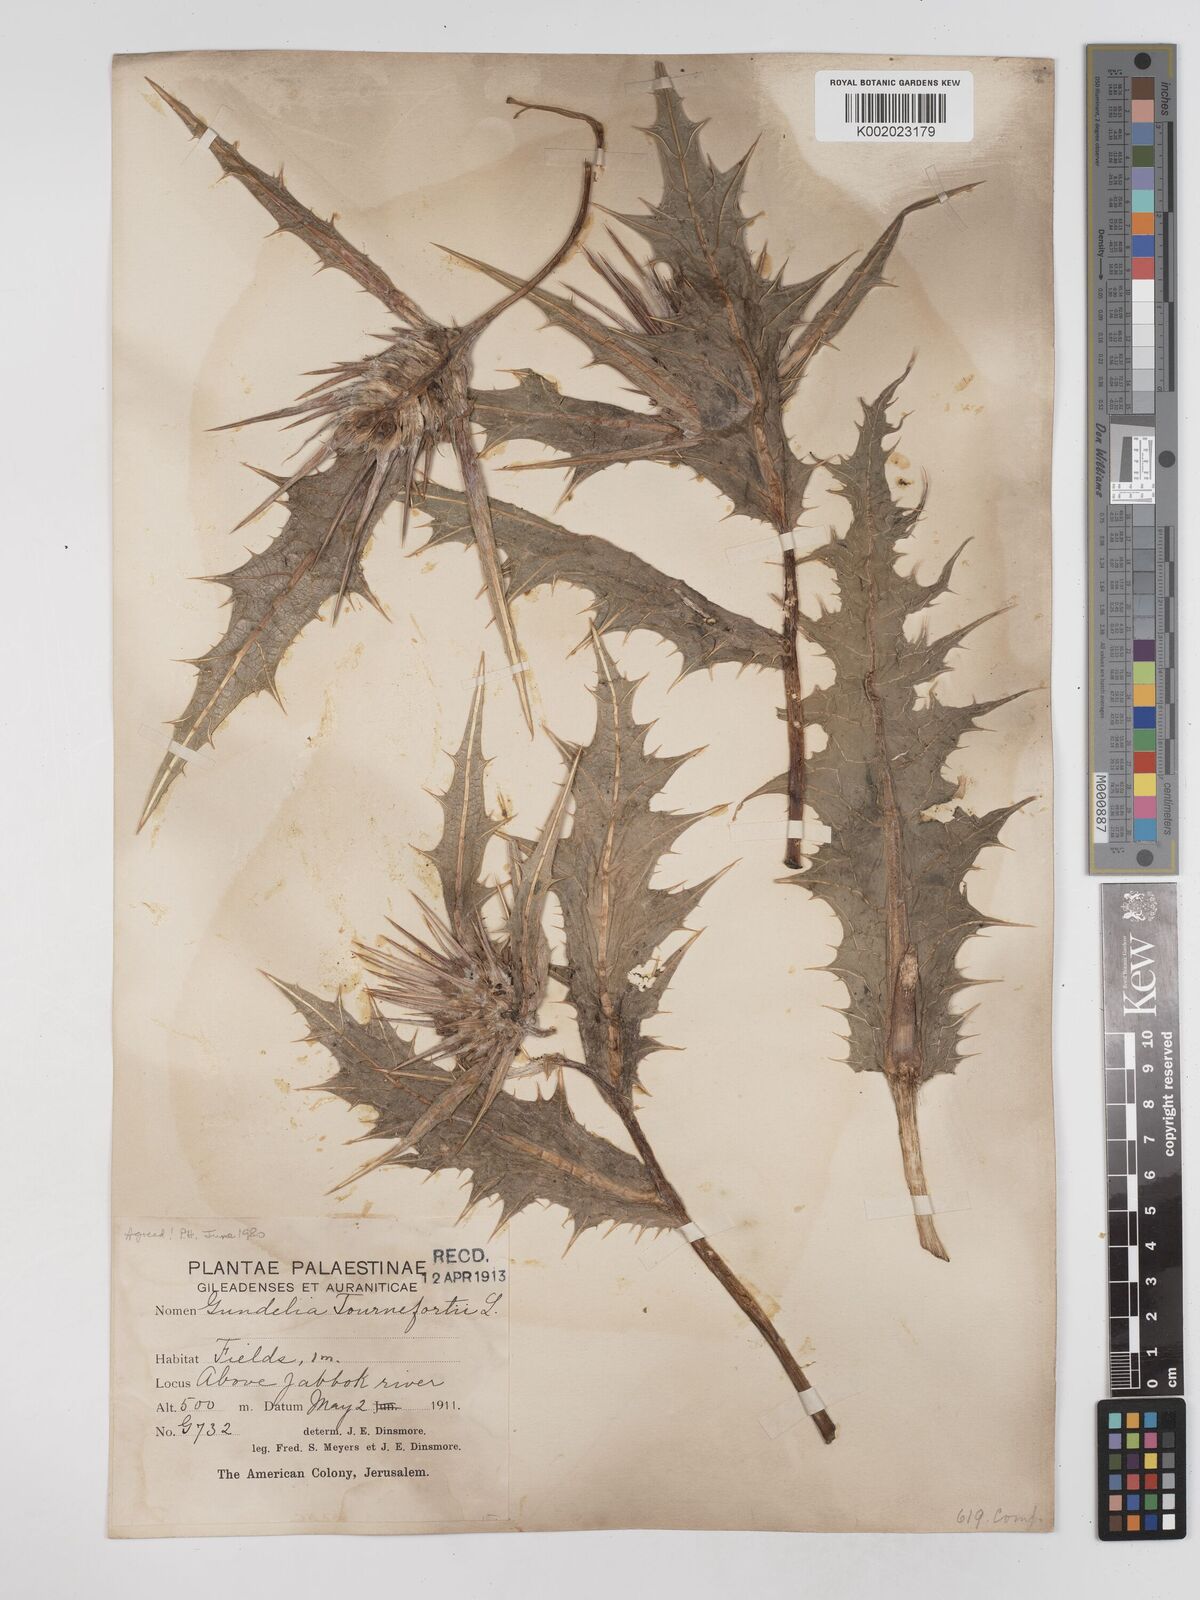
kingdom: Plantae
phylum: Tracheophyta
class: Magnoliopsida
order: Asterales
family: Asteraceae
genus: Gundelia
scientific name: Gundelia tournefortii
